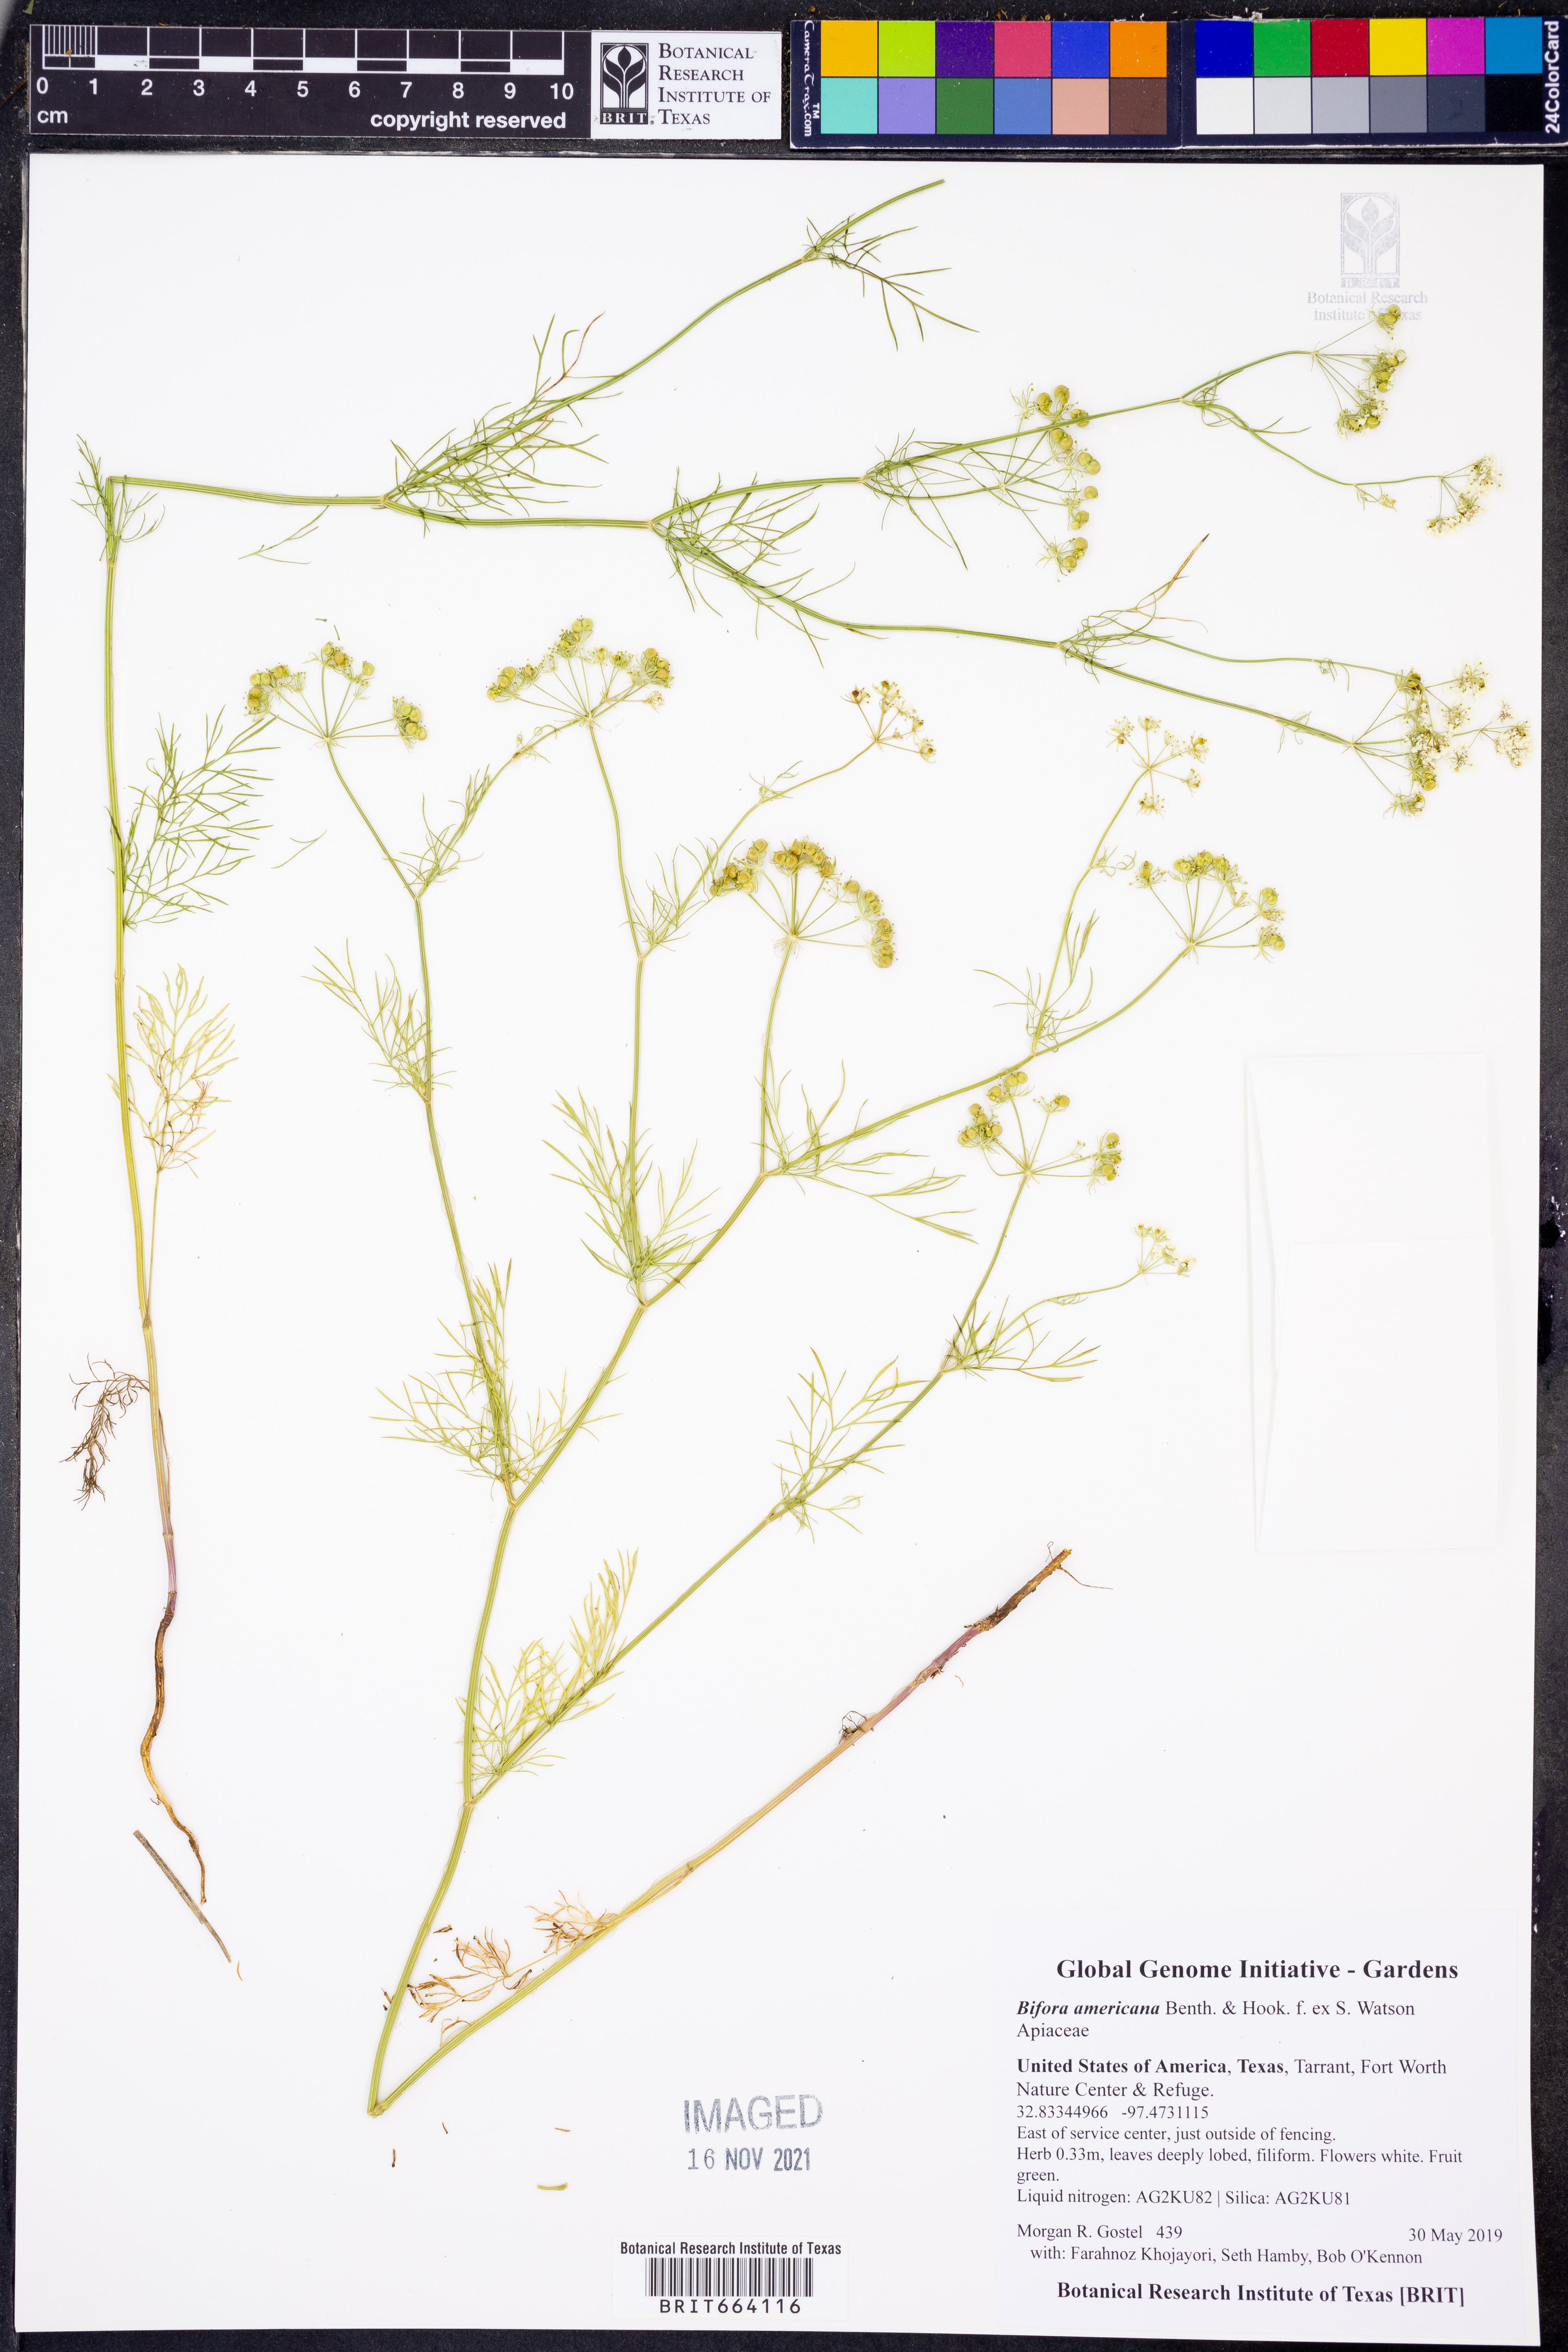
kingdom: Plantae
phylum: Tracheophyta
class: Magnoliopsida
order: Apiales
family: Apiaceae
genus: Atrema
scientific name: Atrema americanum
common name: Prairie-bishop
